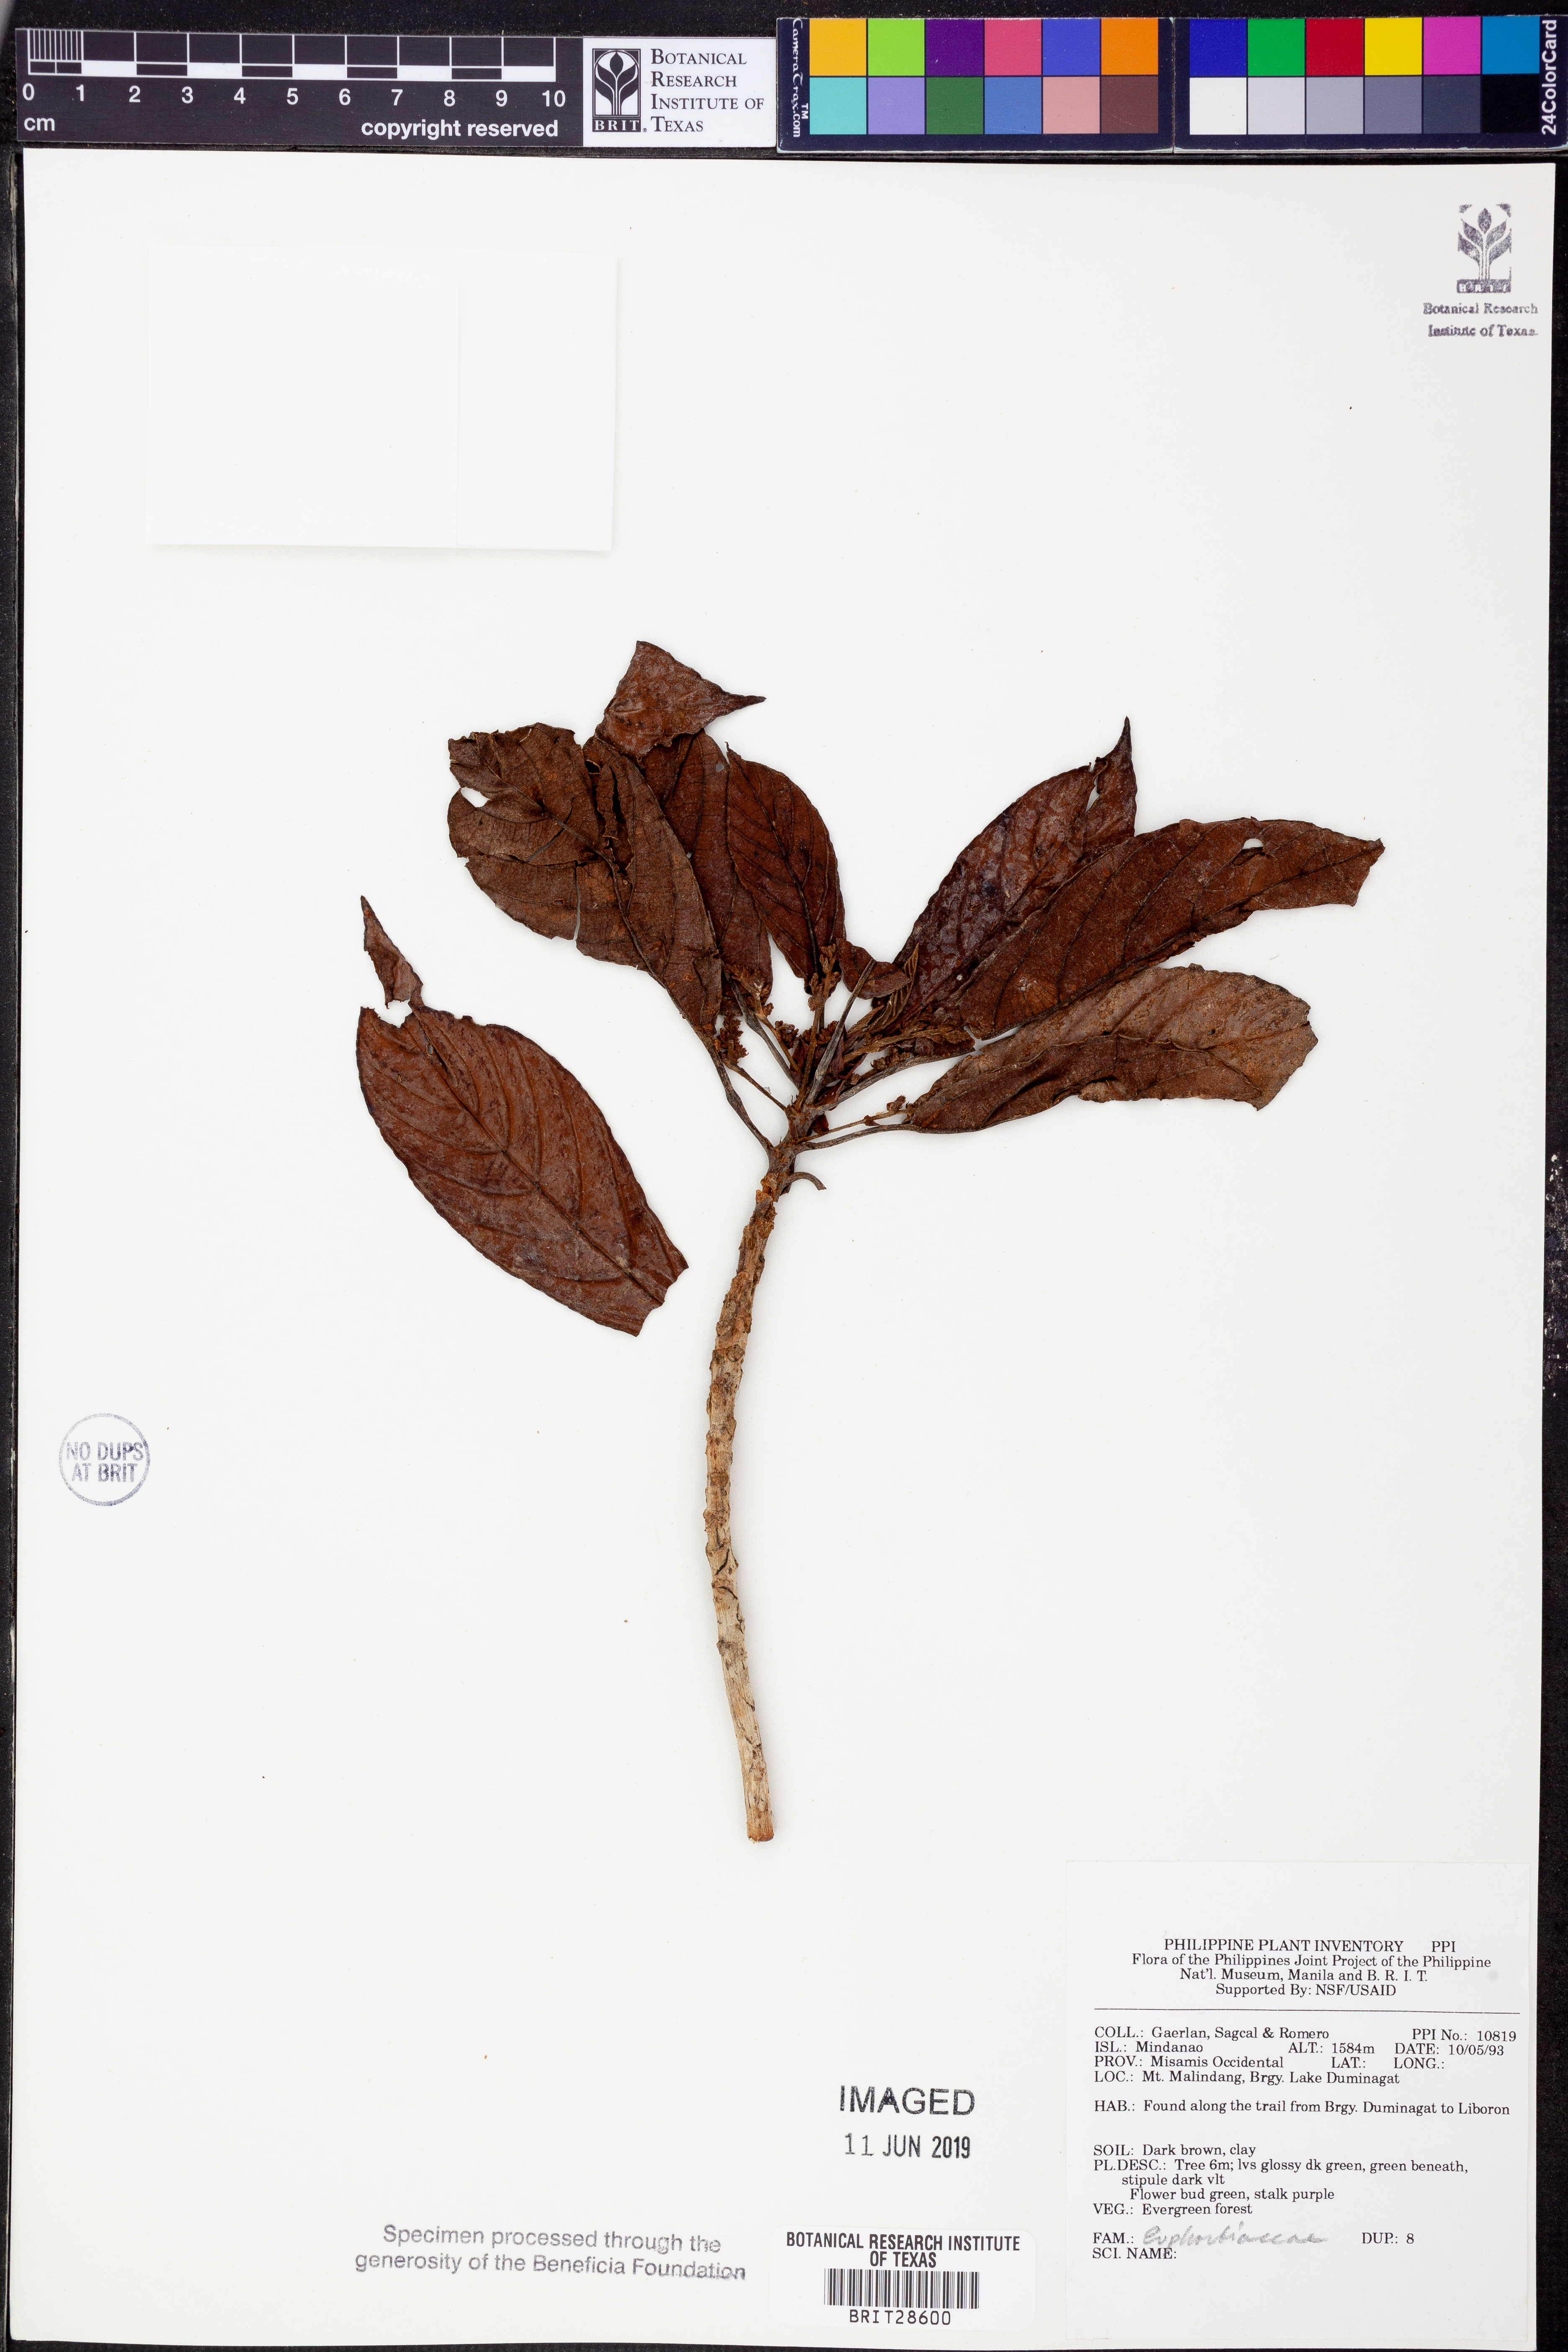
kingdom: Plantae
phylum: Tracheophyta
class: Magnoliopsida
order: Malpighiales
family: Euphorbiaceae
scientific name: Euphorbiaceae
